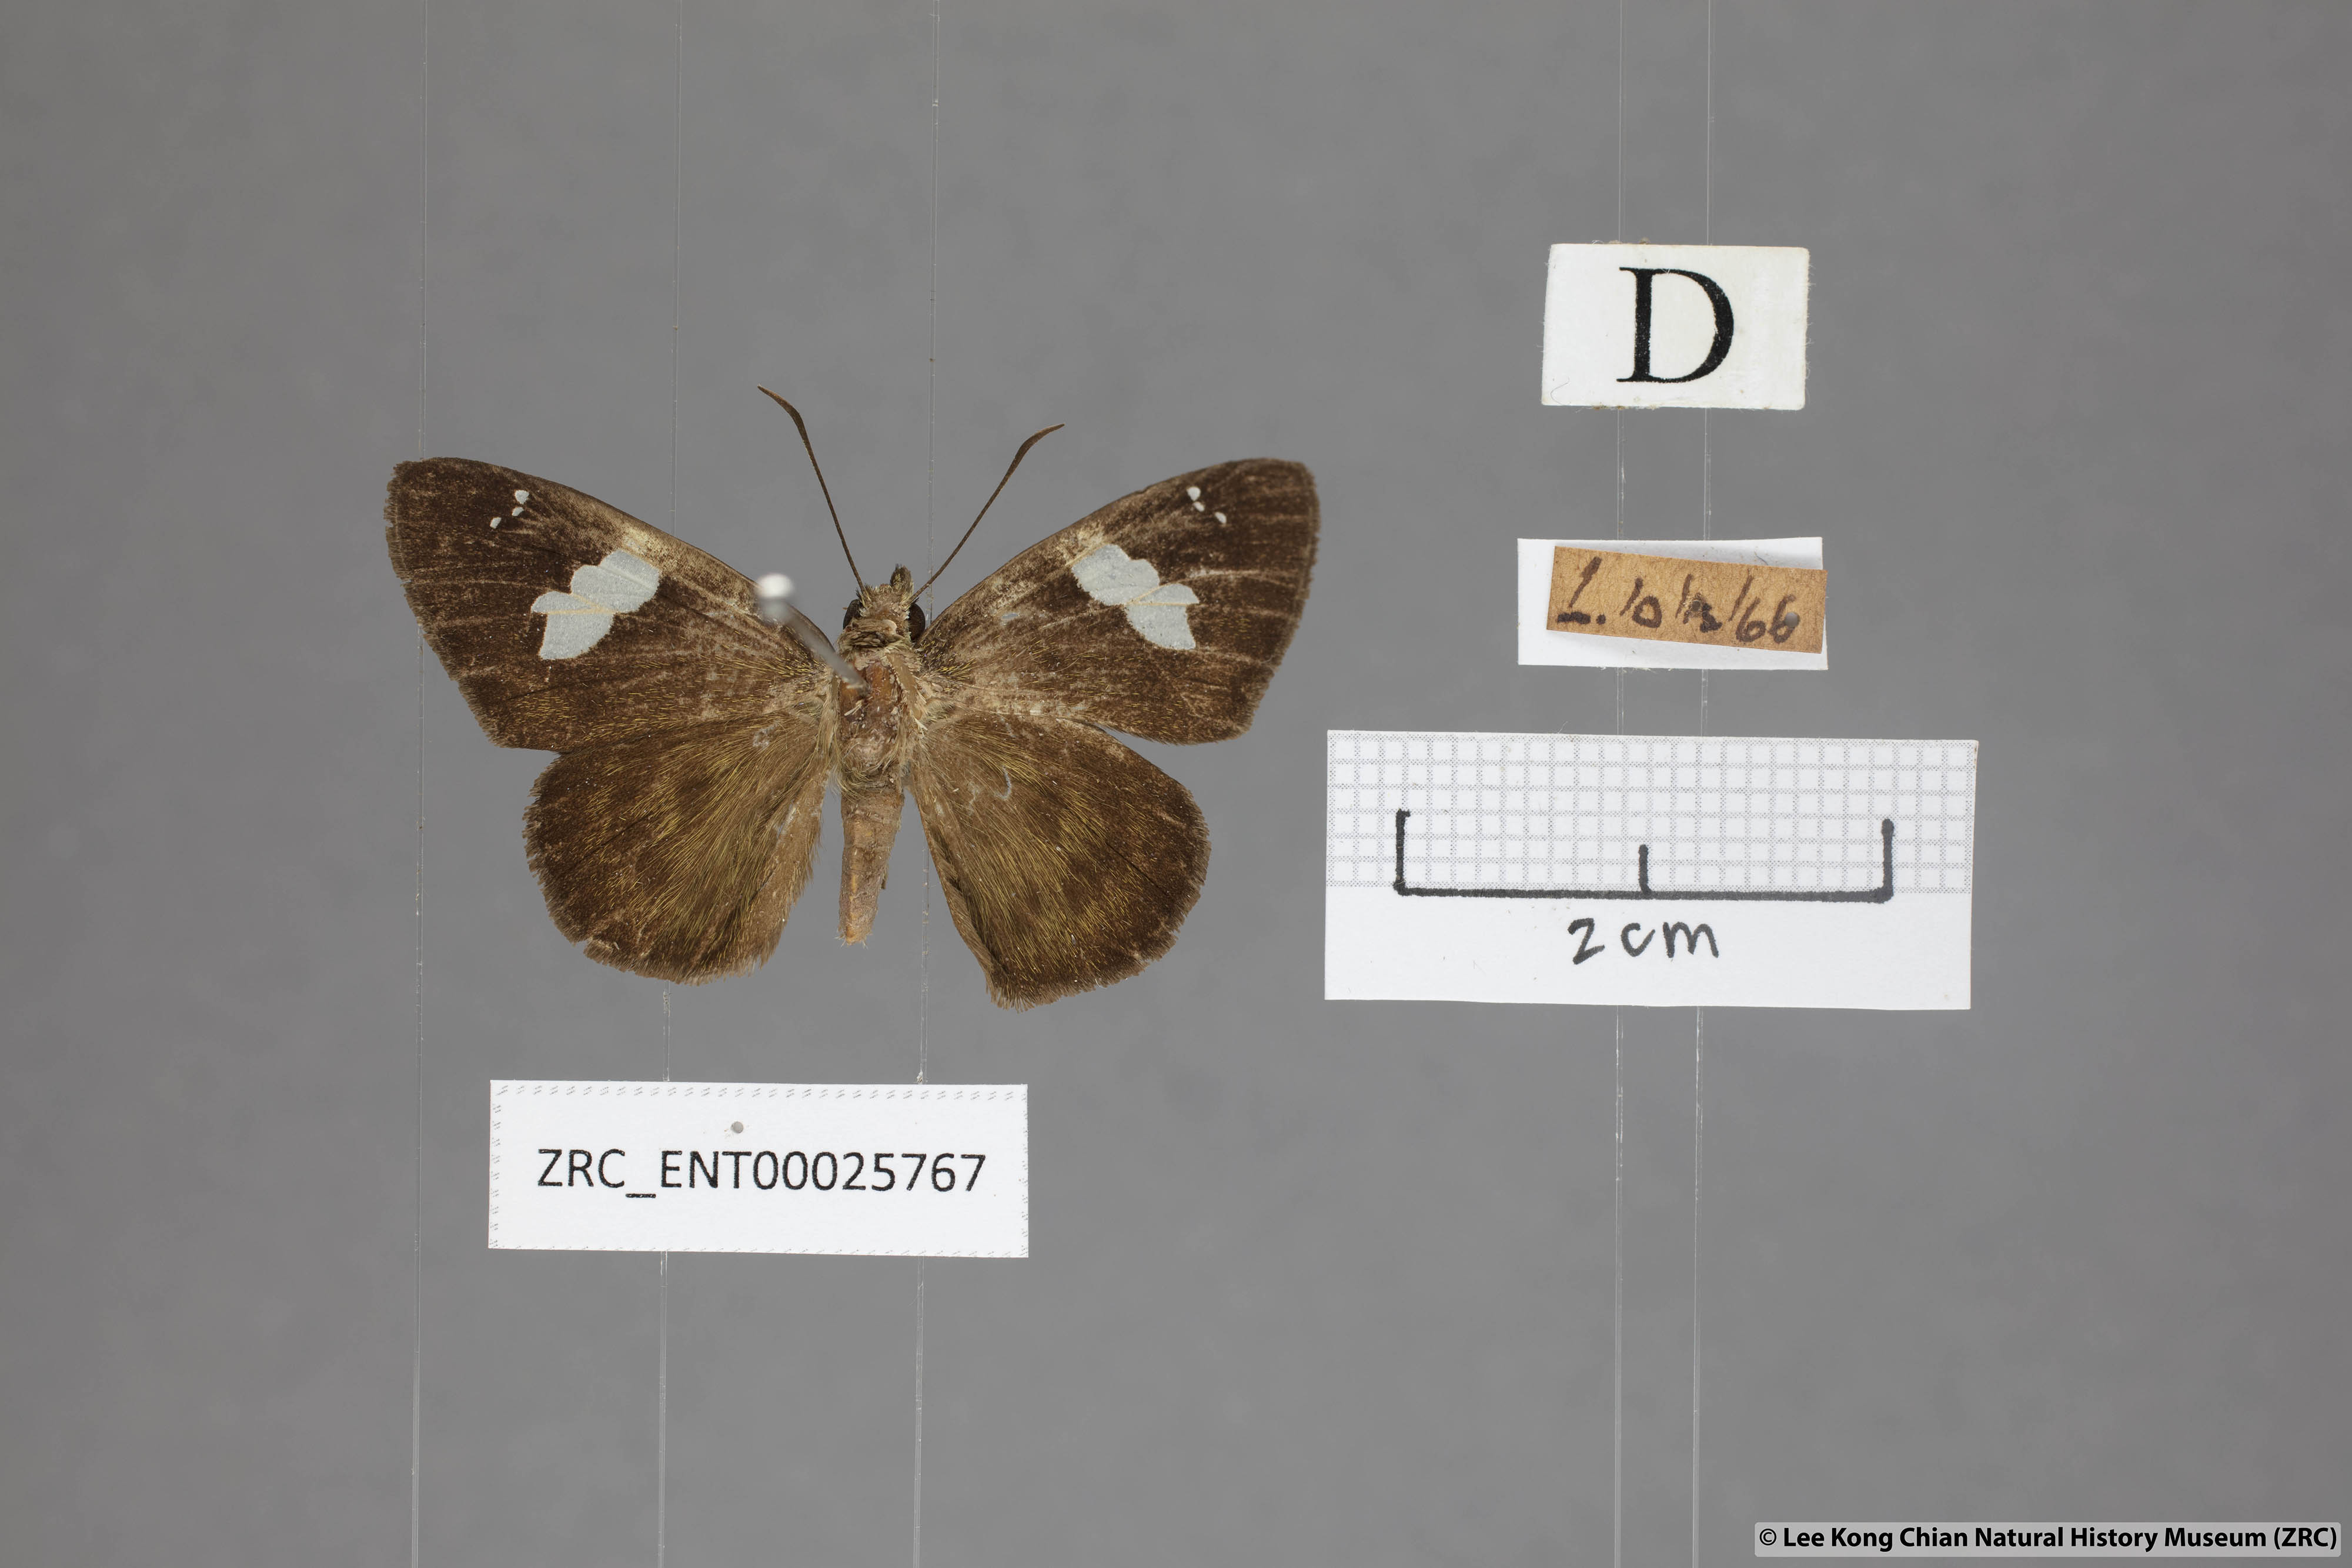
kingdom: Animalia
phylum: Arthropoda
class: Insecta
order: Lepidoptera
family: Hesperiidae
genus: Celaenorrhinus
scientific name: Celaenorrhinus asmara
